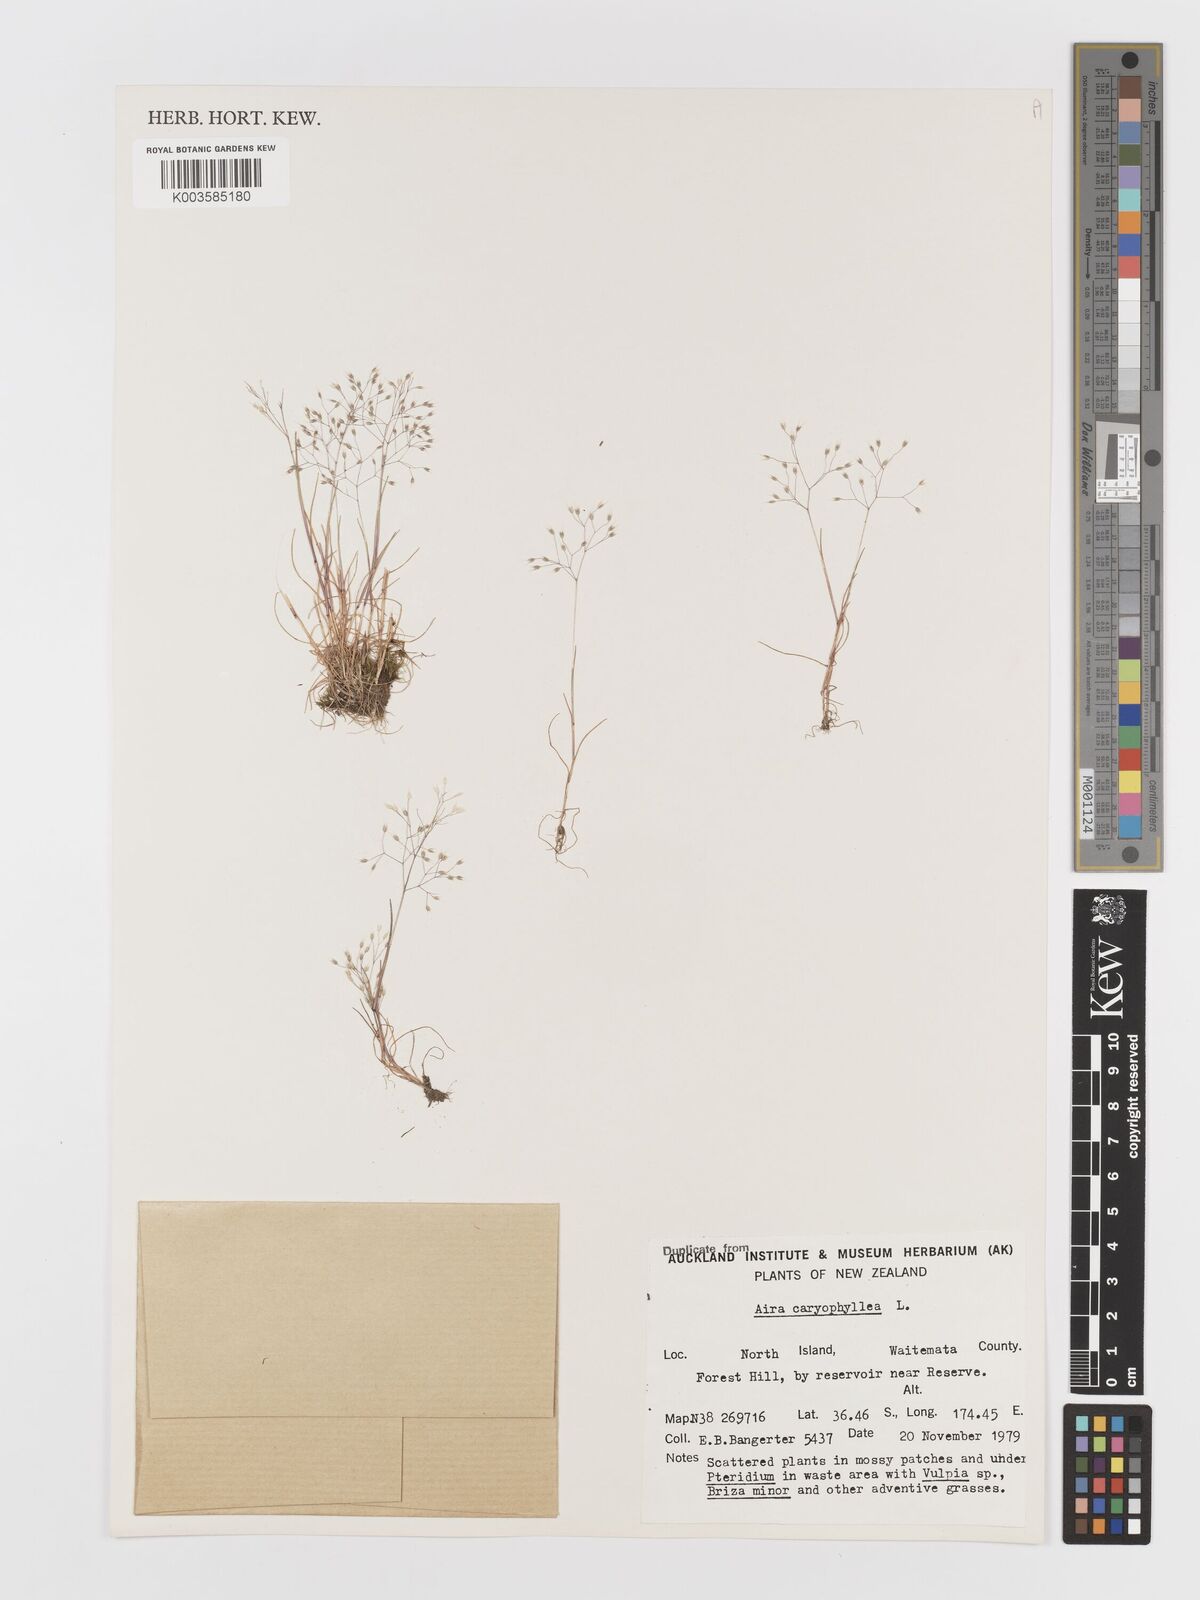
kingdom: Plantae
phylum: Tracheophyta
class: Liliopsida
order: Poales
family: Poaceae
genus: Aira
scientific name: Aira caryophyllea
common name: Silver hairgrass
